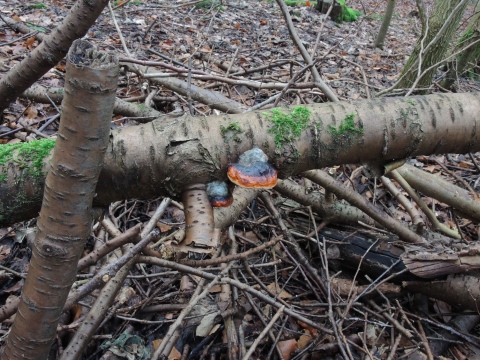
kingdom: Fungi
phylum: Basidiomycota
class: Agaricomycetes
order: Polyporales
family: Fomitopsidaceae
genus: Fomitopsis
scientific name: Fomitopsis pinicola
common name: randbæltet hovporesvamp
